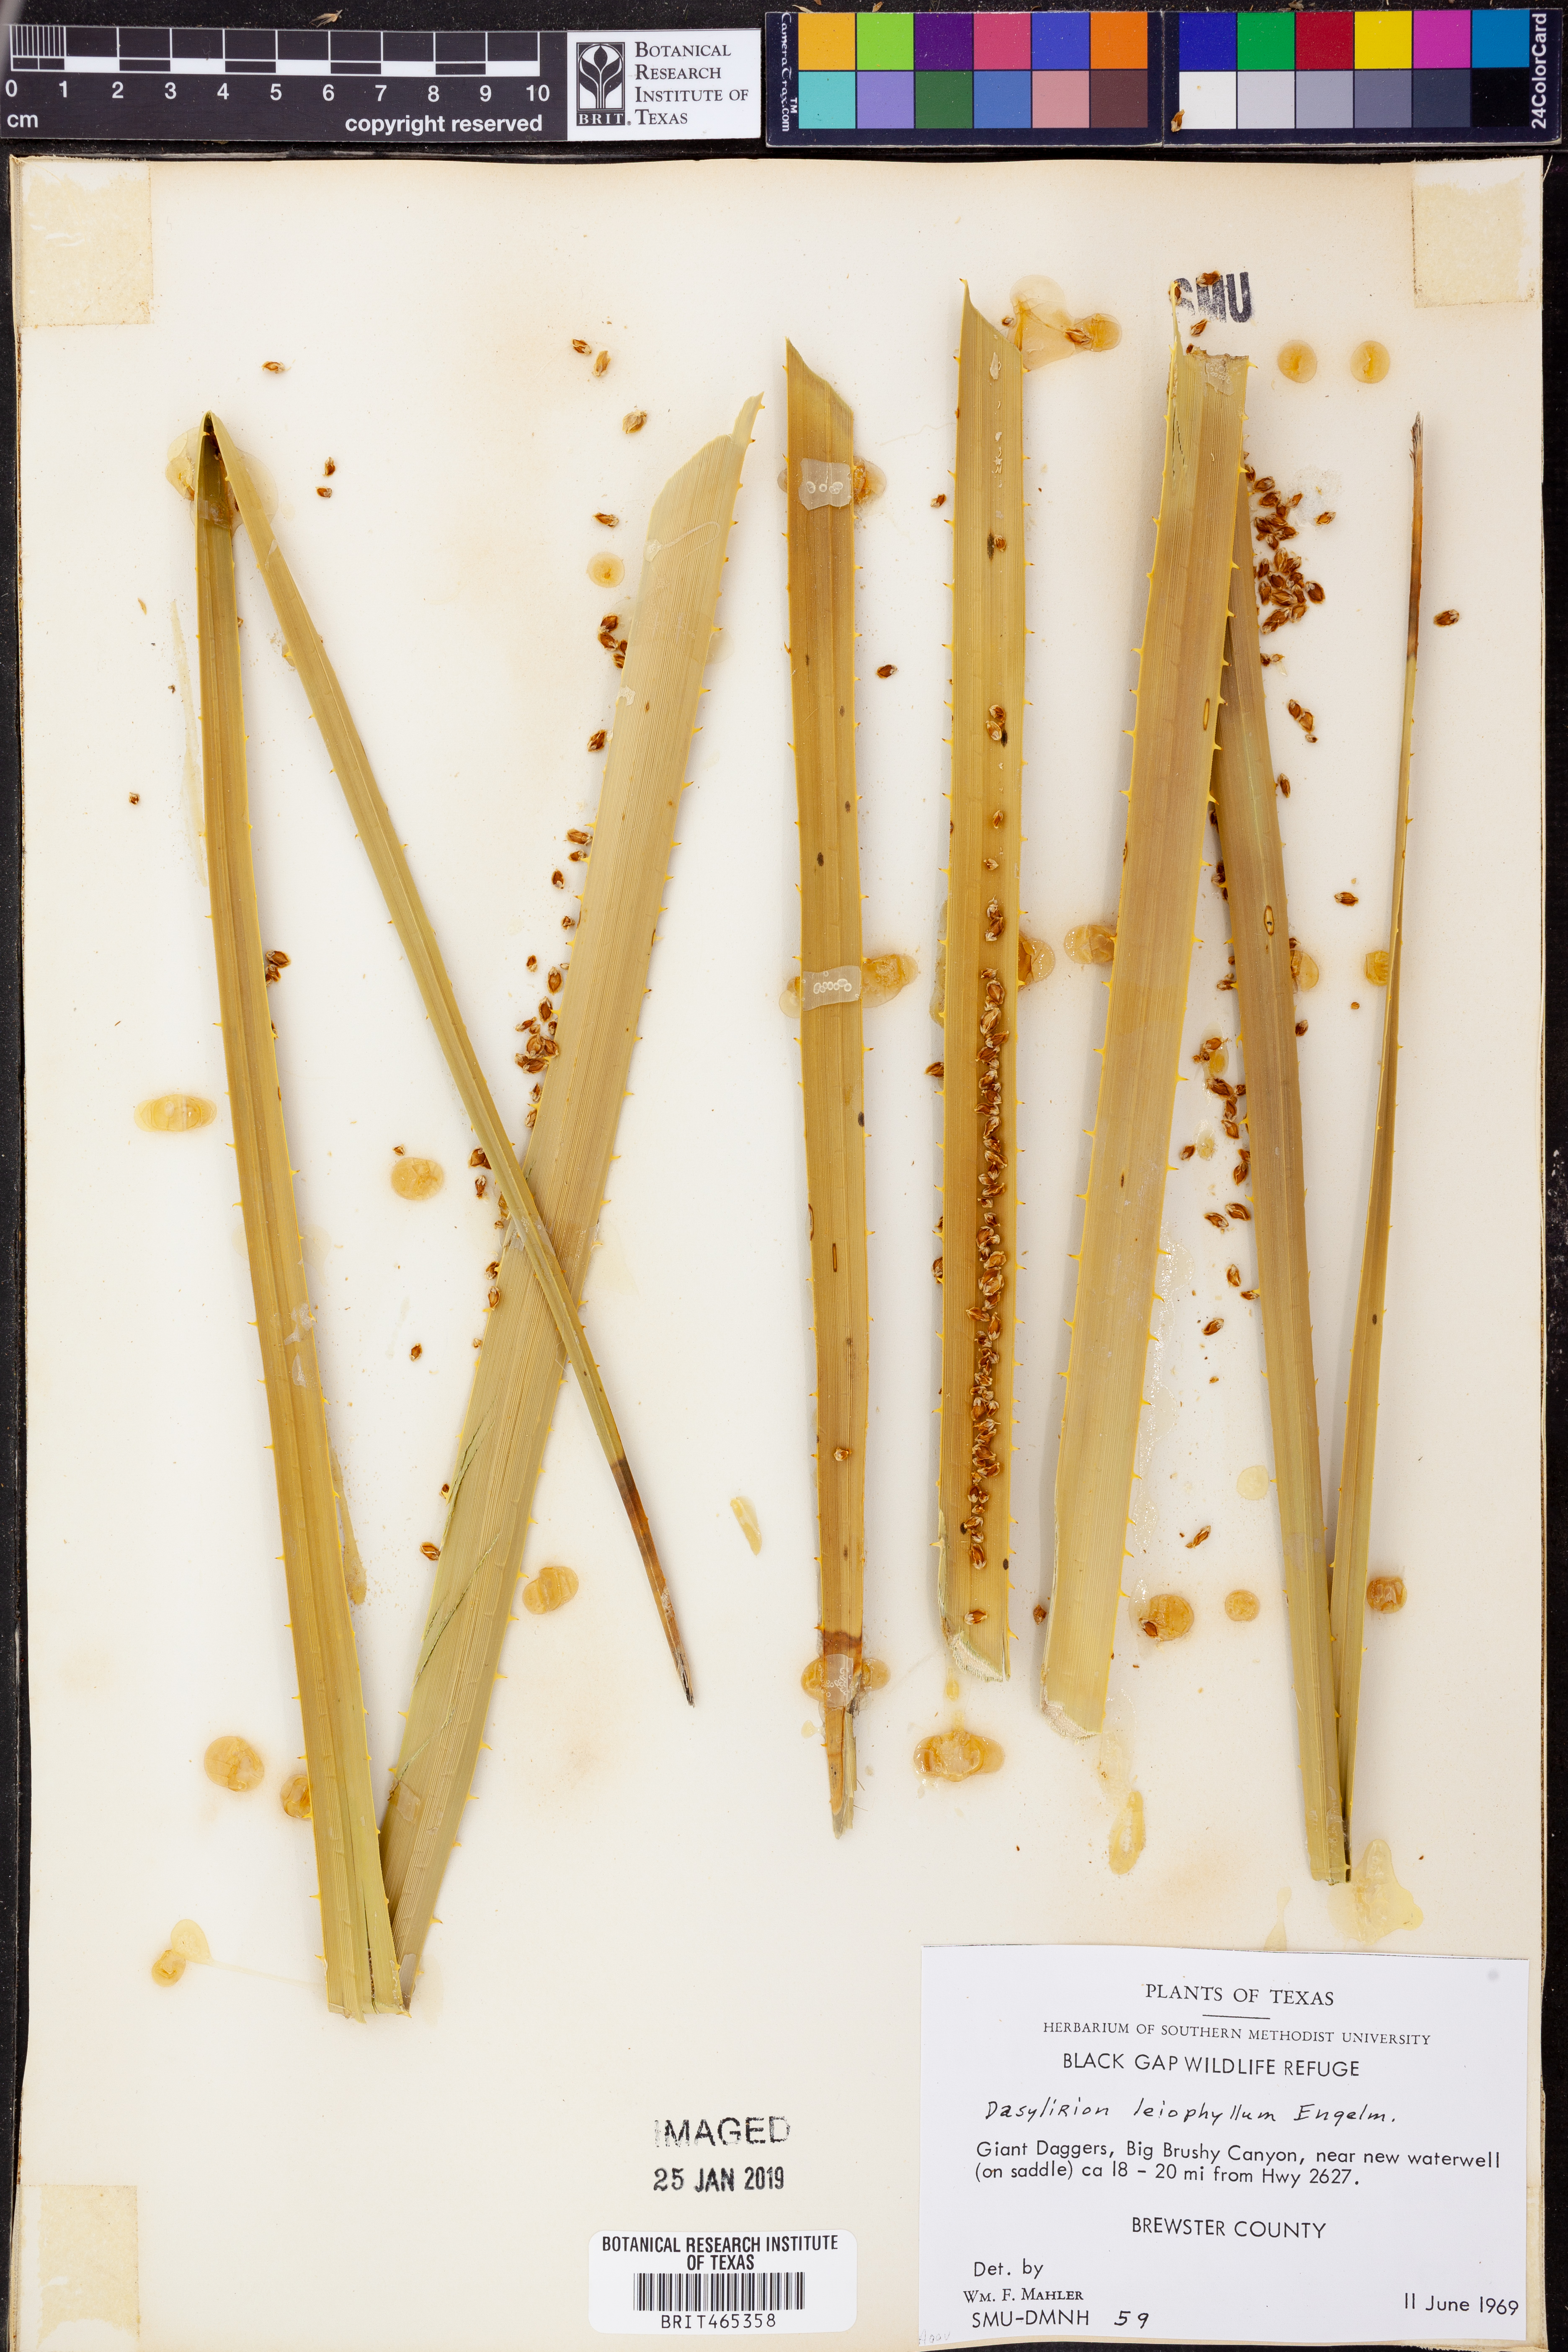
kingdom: Plantae
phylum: Tracheophyta
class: Liliopsida
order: Asparagales
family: Asparagaceae
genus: Dasylirion
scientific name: Dasylirion leiophyllum
